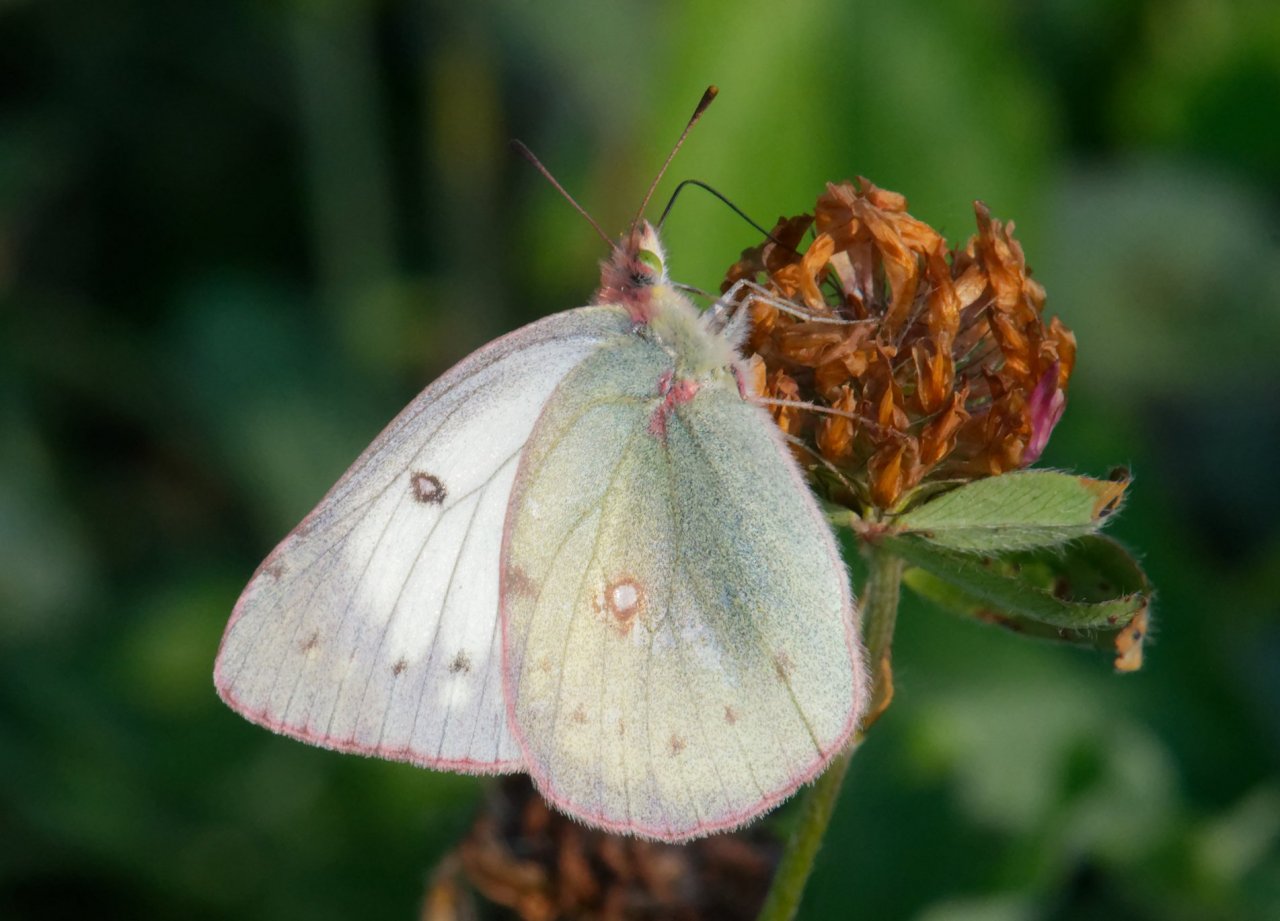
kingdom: Animalia
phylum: Arthropoda
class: Insecta
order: Lepidoptera
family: Pieridae
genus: Colias
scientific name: Colias philodice
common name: Clouded Sulphur
